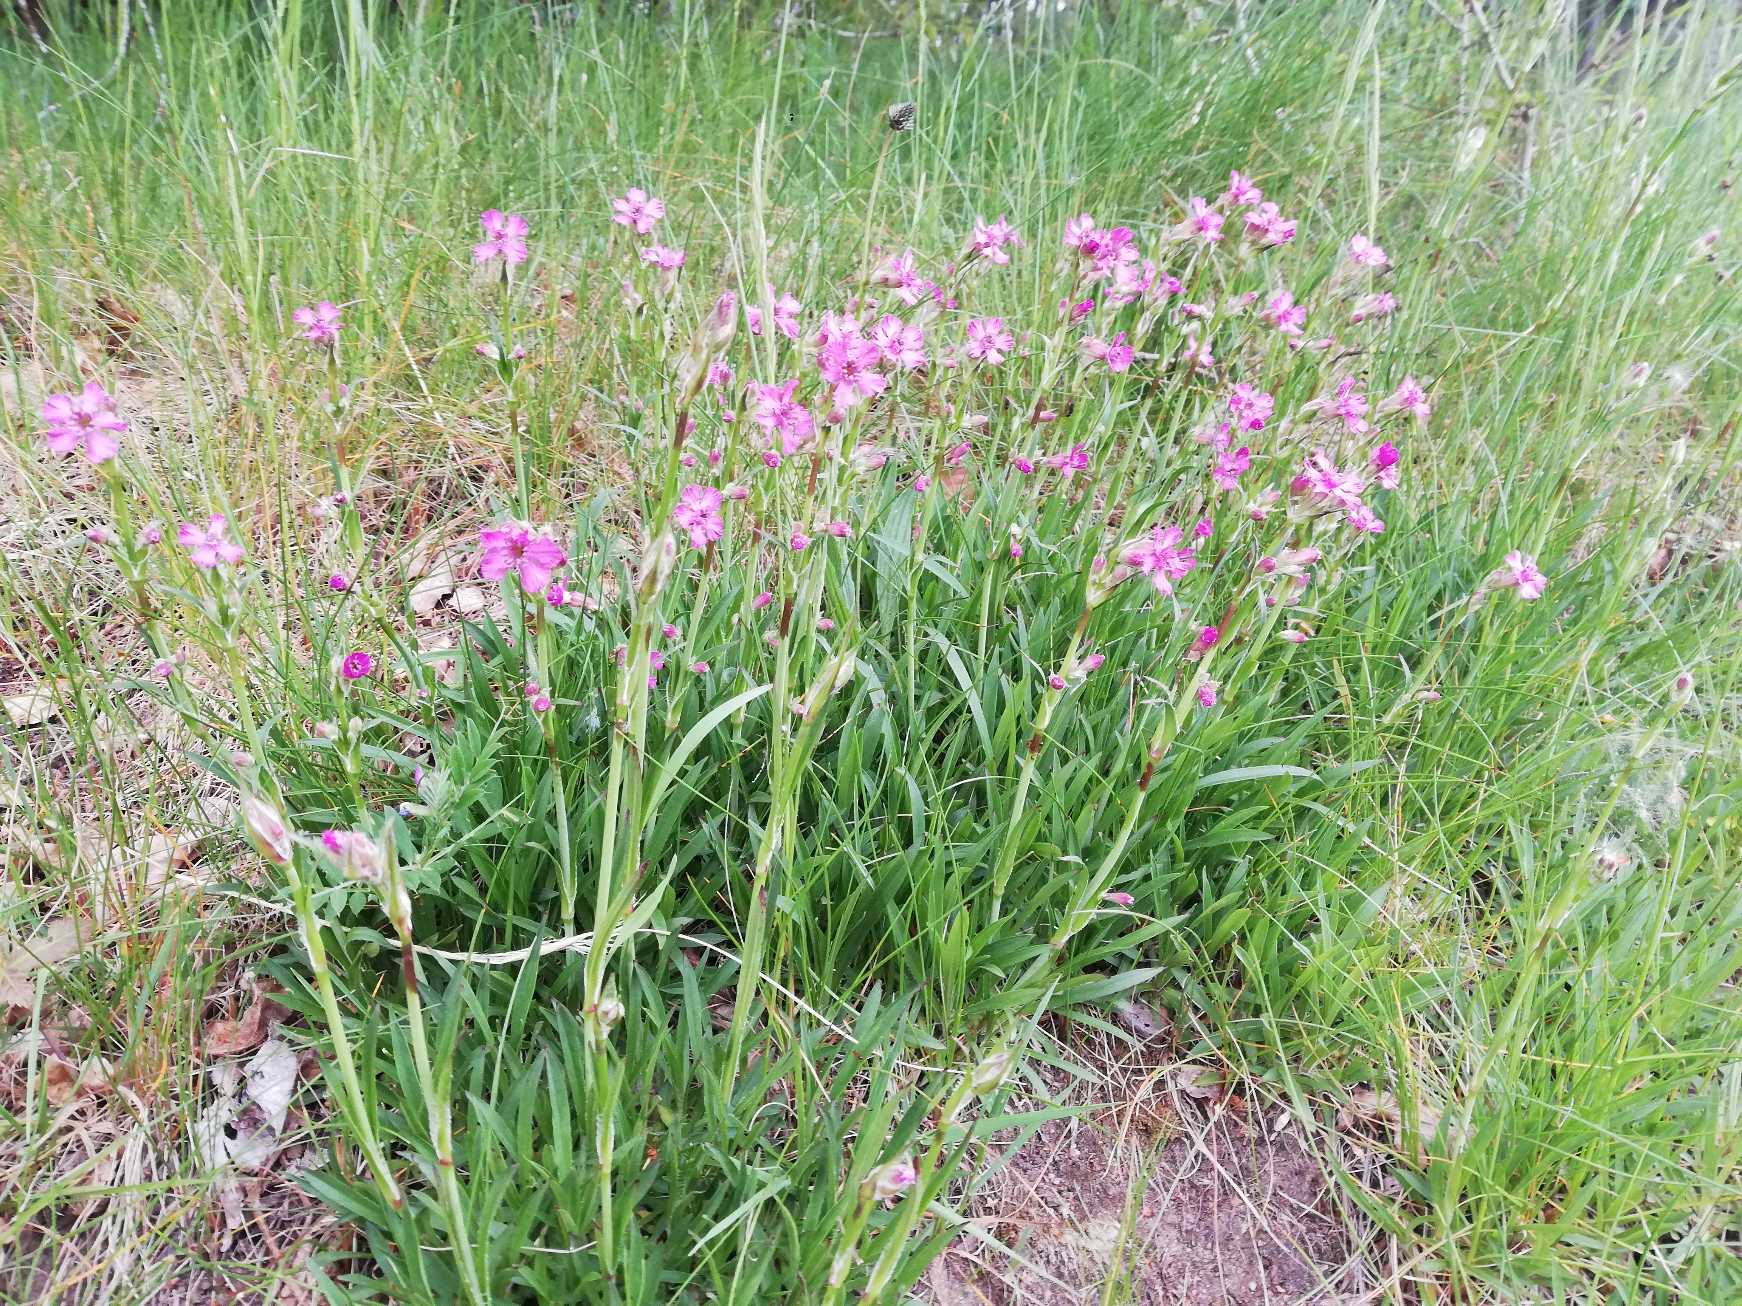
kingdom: Plantae
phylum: Tracheophyta
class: Magnoliopsida
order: Caryophyllales
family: Caryophyllaceae
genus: Viscaria
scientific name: Viscaria vulgaris
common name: Tjærenellike
